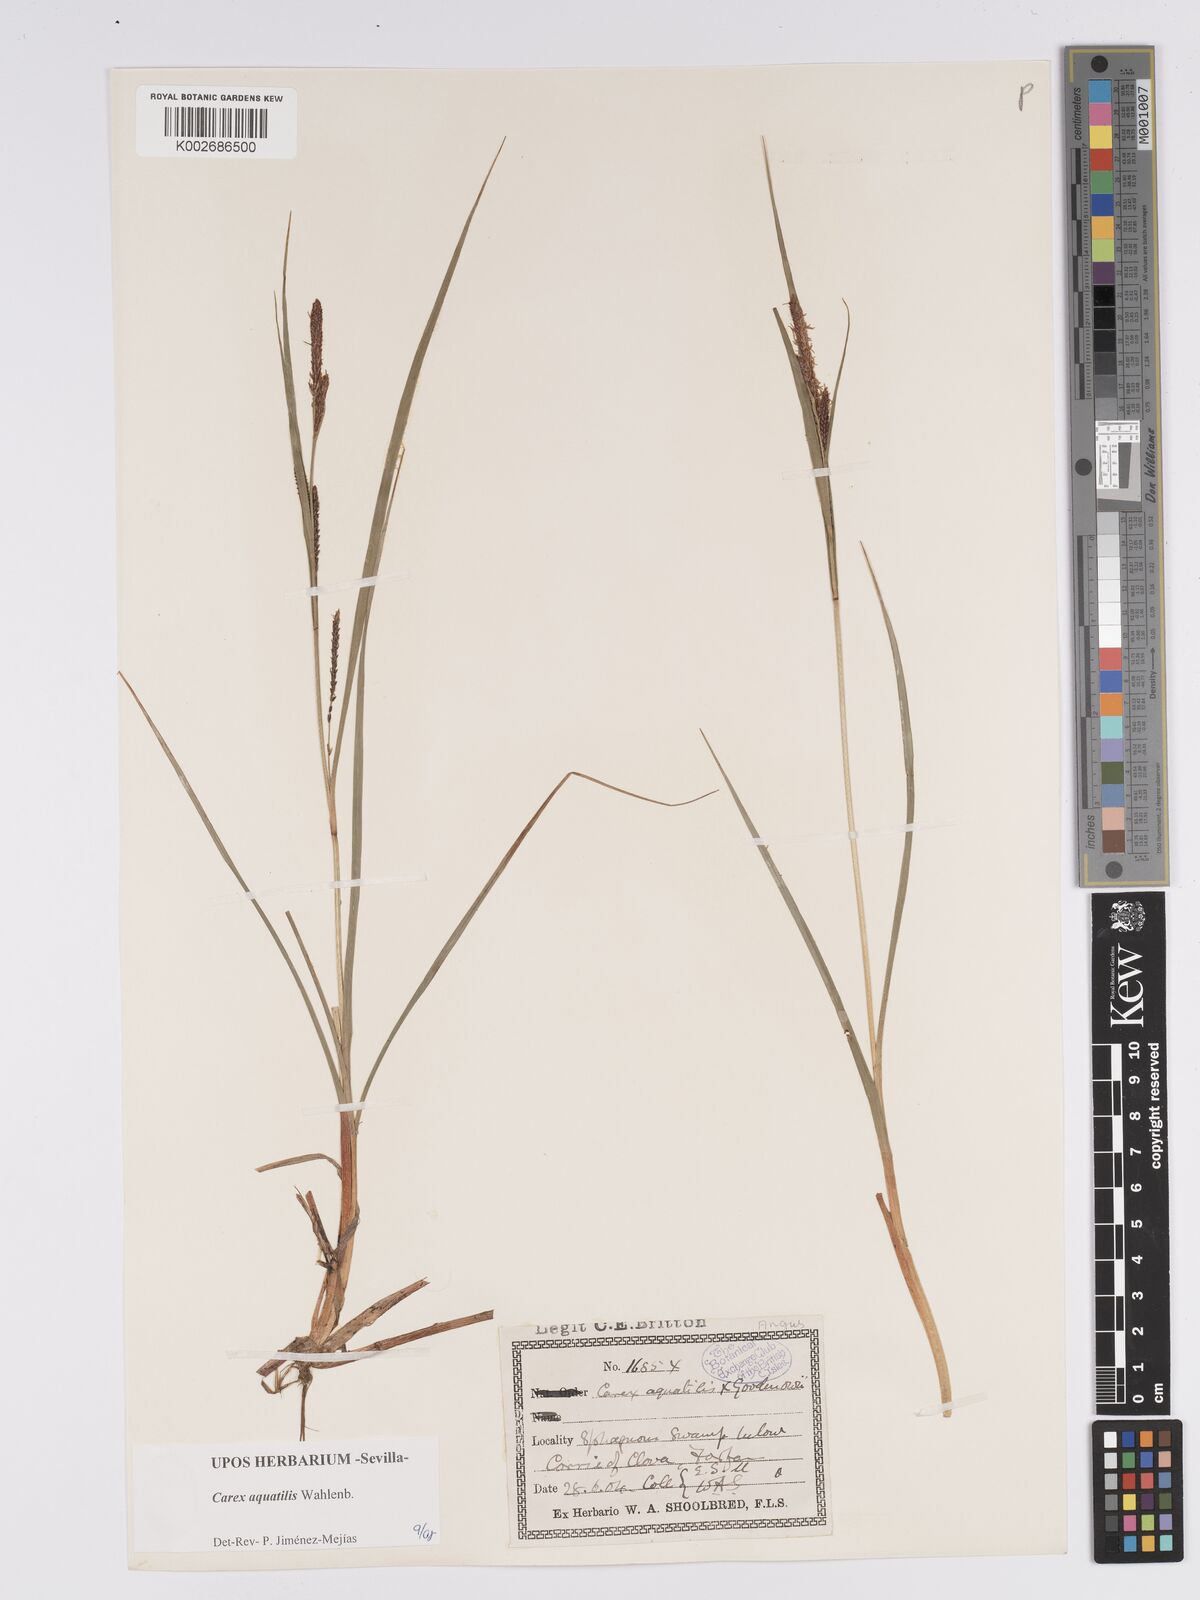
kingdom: Plantae
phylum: Tracheophyta
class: Liliopsida
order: Poales
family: Cyperaceae
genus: Carex
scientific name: Carex aquatilis
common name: Water sedge
